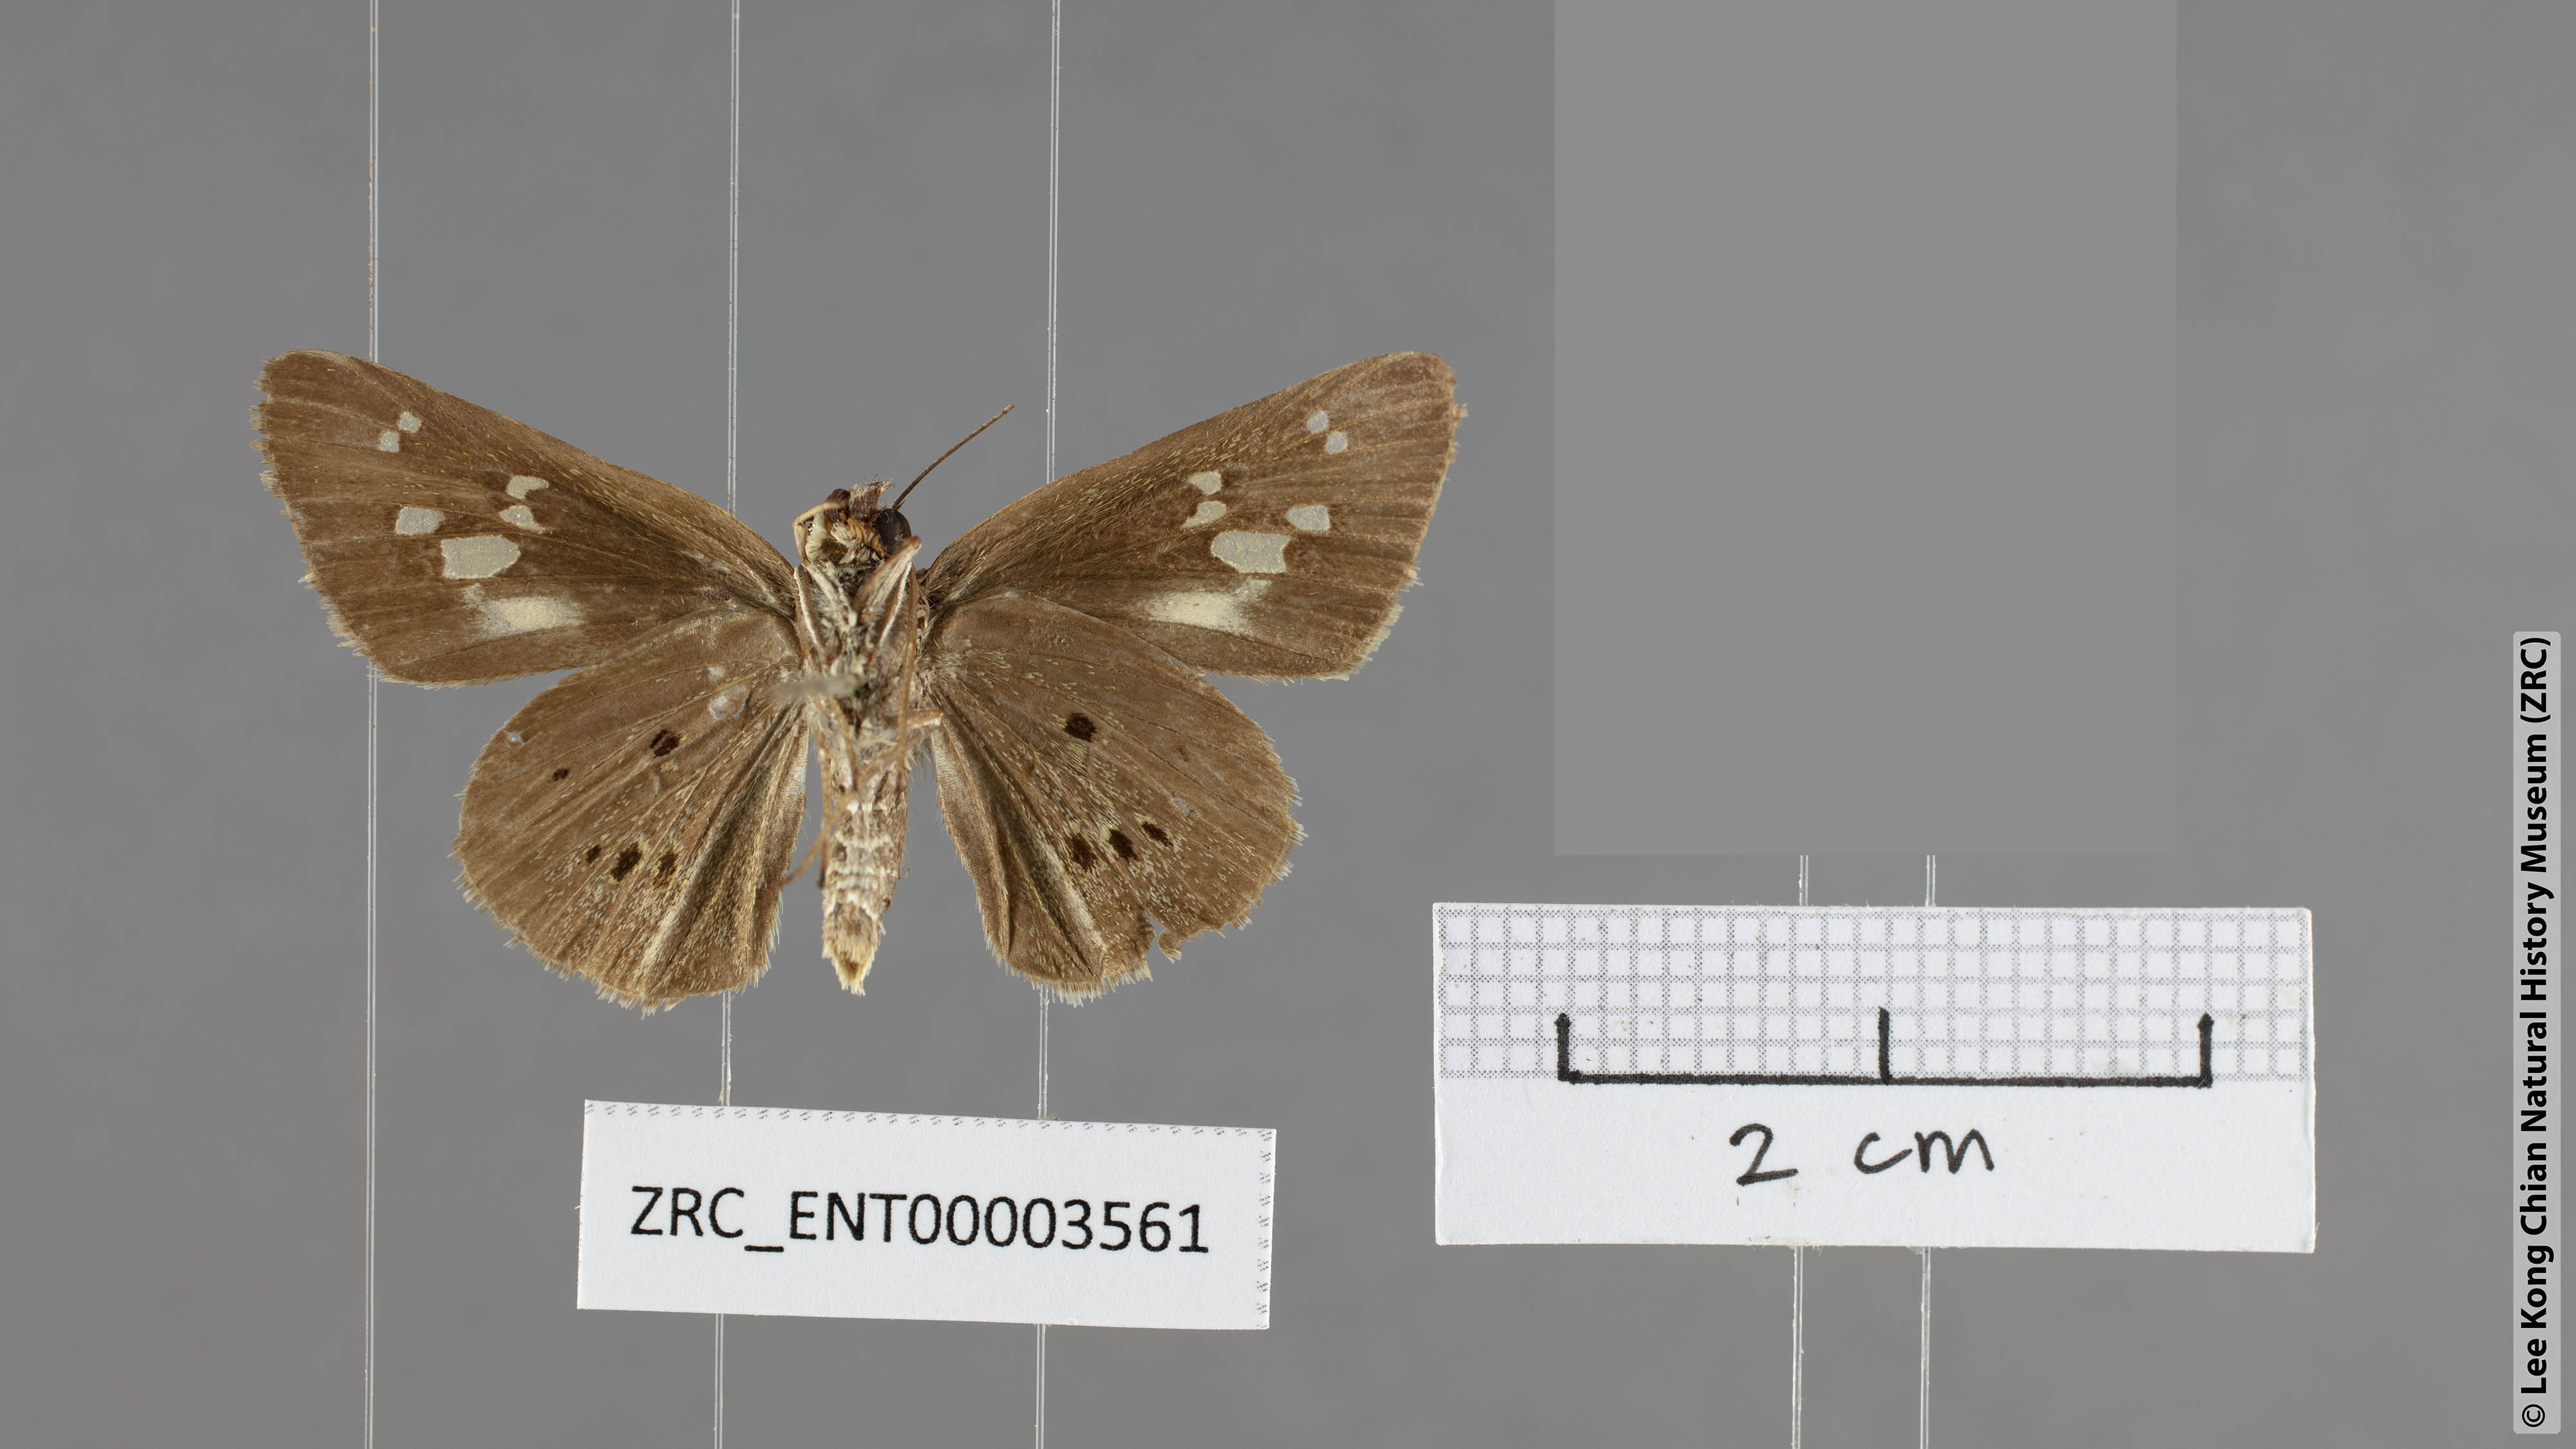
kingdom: Animalia
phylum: Arthropoda
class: Insecta
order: Lepidoptera
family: Hesperiidae
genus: Suastus
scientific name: Suastus gremius
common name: Indian palm bob
